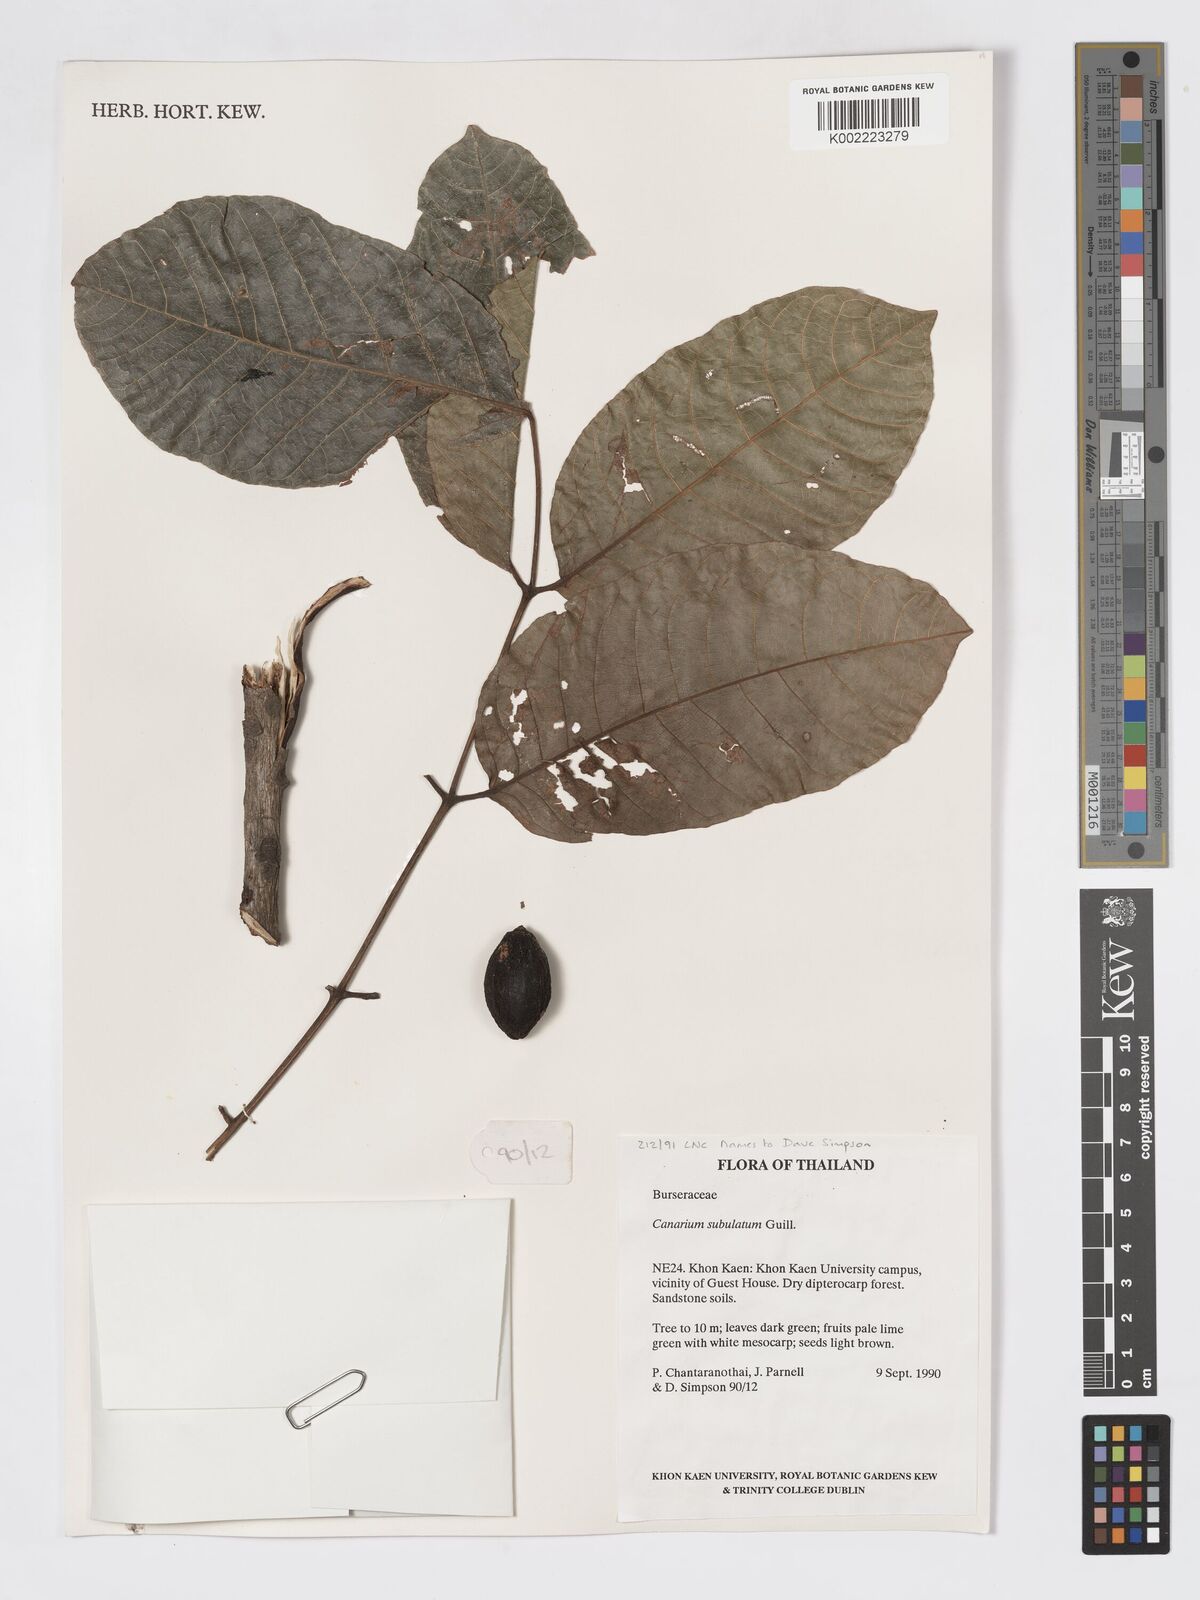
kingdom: Plantae
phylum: Tracheophyta
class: Magnoliopsida
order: Sapindales
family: Burseraceae
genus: Canarium
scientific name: Canarium subulatum
